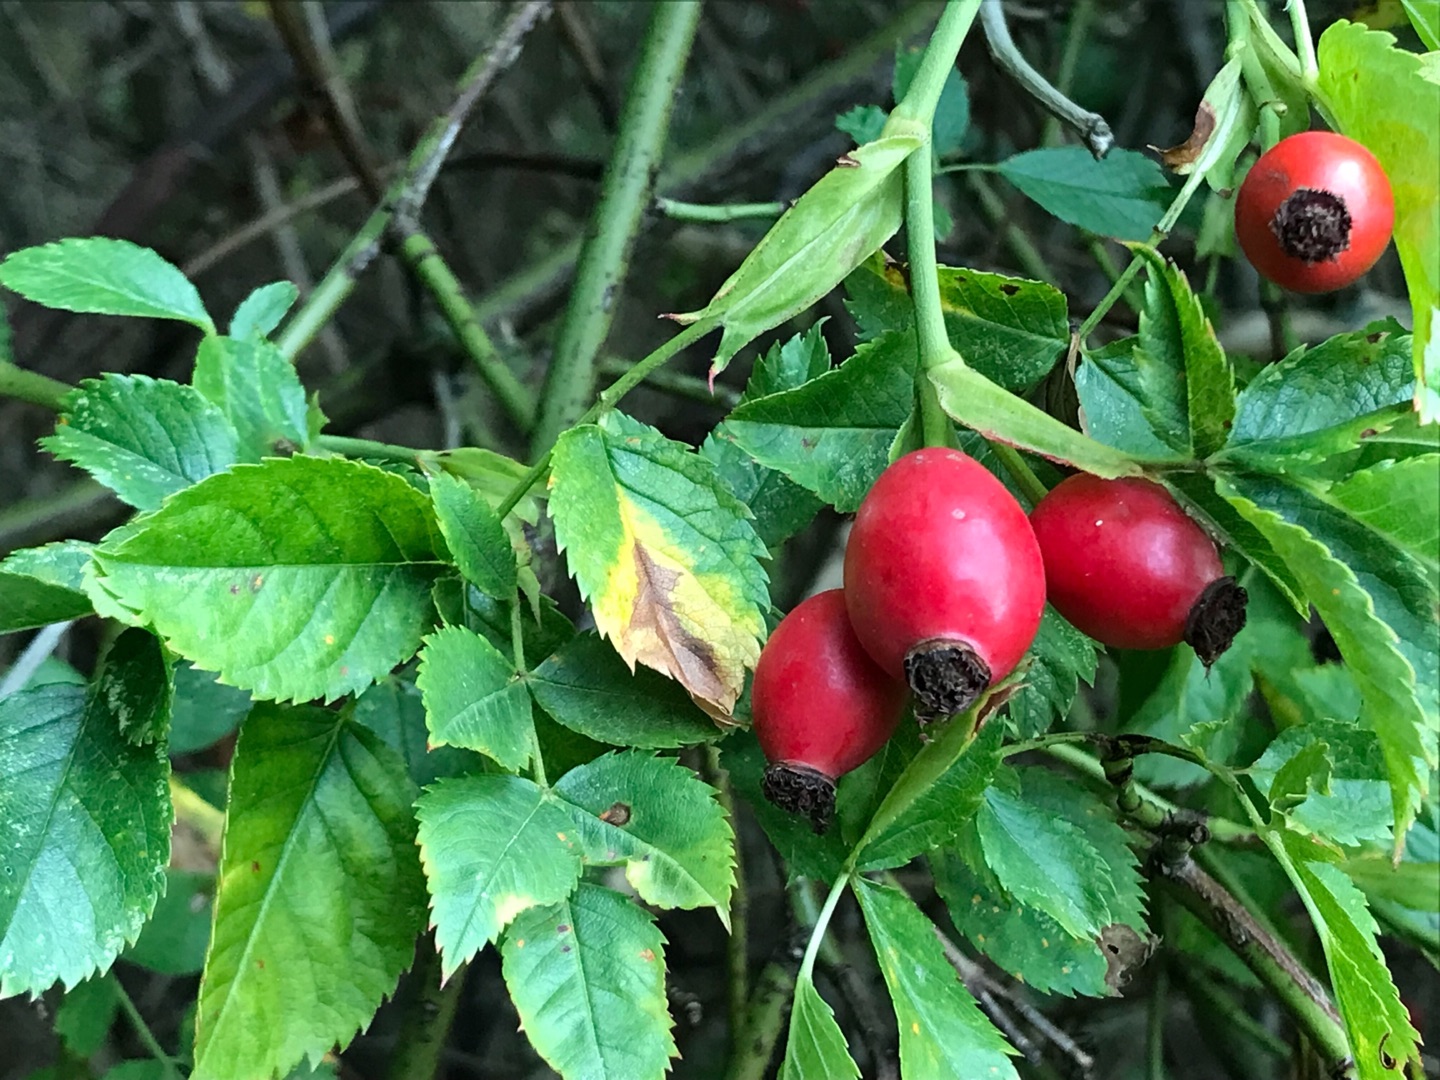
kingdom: Plantae
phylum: Tracheophyta
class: Magnoliopsida
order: Rosales
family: Rosaceae
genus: Rosa
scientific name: Rosa
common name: Roseslægten
